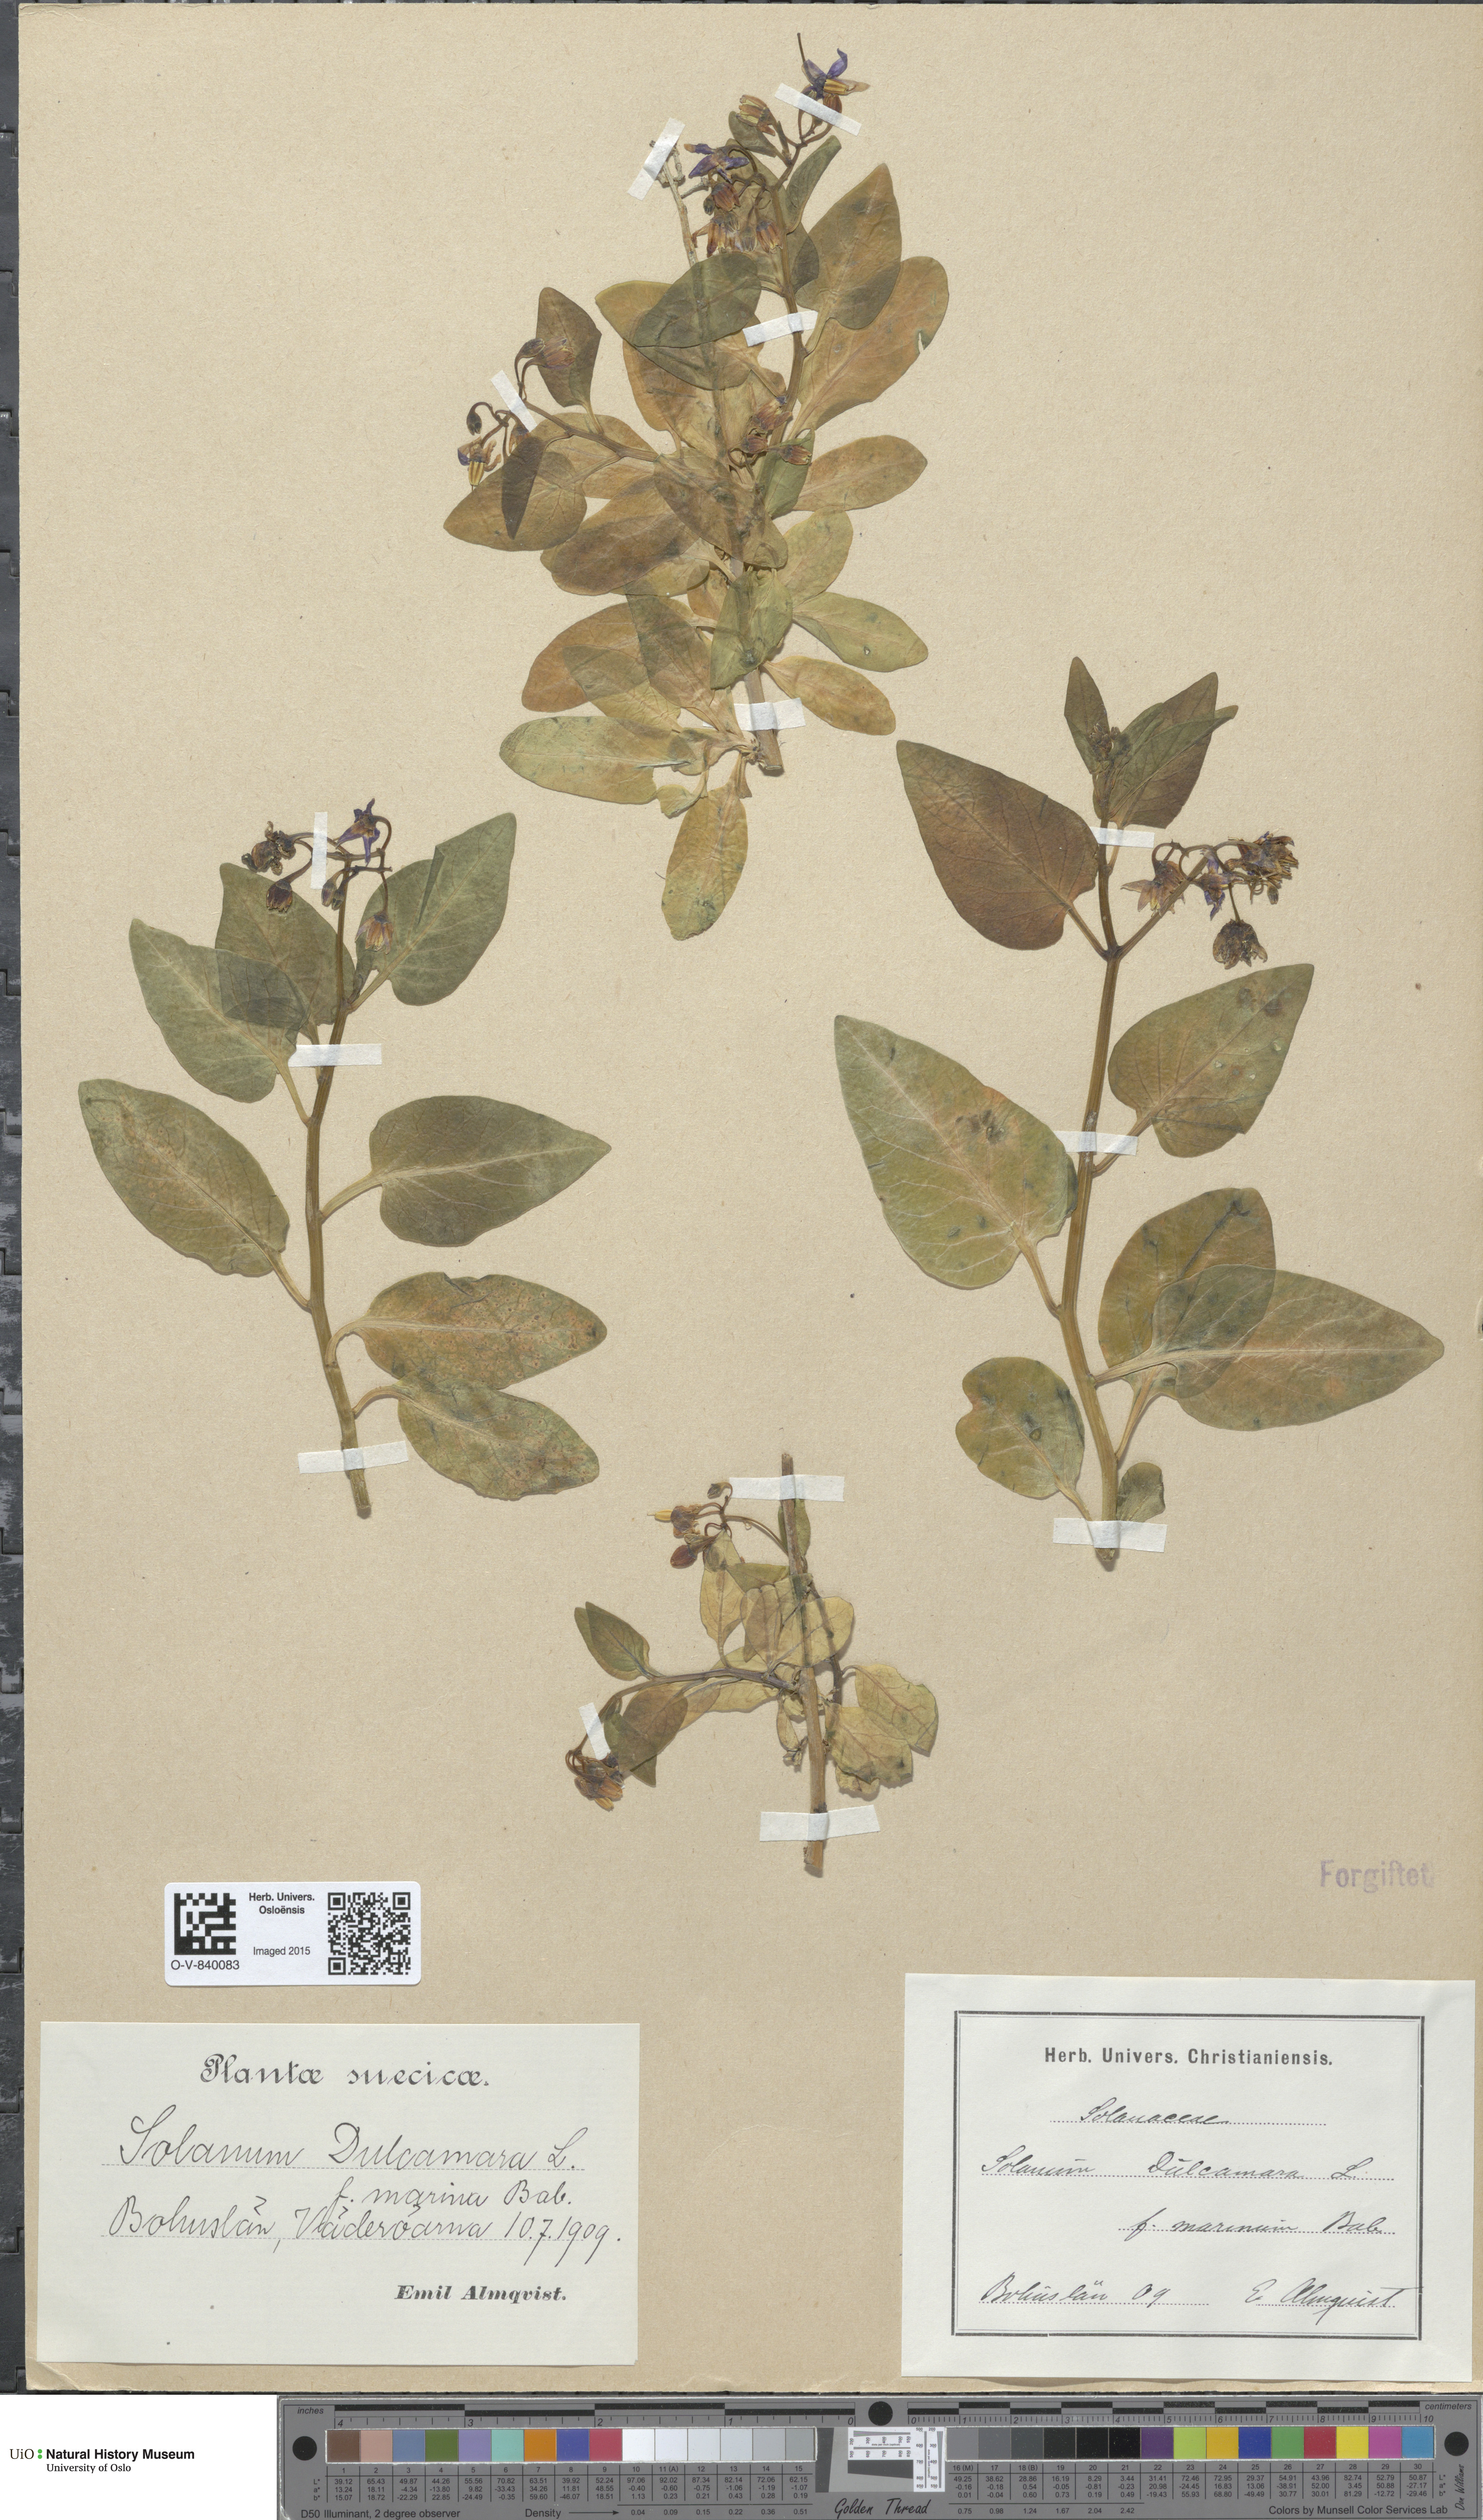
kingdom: Plantae
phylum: Tracheophyta
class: Magnoliopsida
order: Solanales
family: Solanaceae
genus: Solanum
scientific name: Solanum dulcamara
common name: Climbing nightshade
